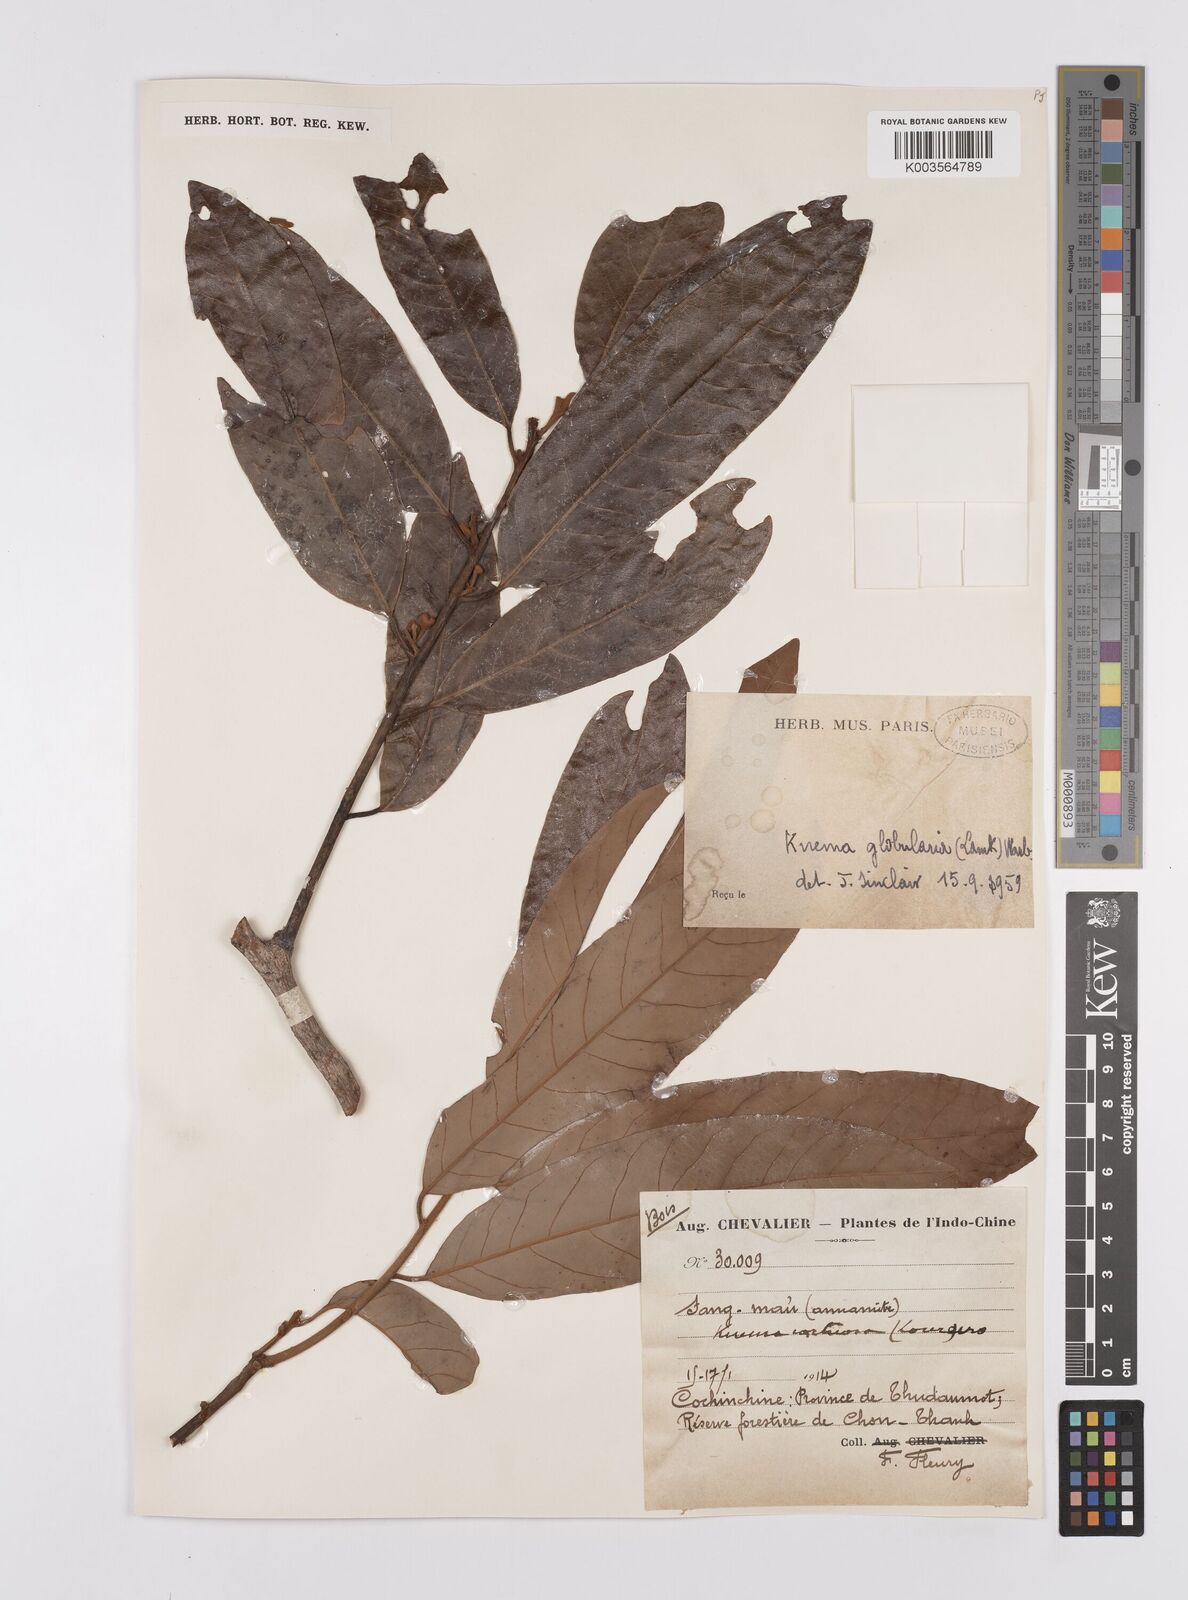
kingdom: Plantae
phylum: Tracheophyta
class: Magnoliopsida
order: Magnoliales
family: Myristicaceae
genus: Knema
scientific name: Knema globularia
